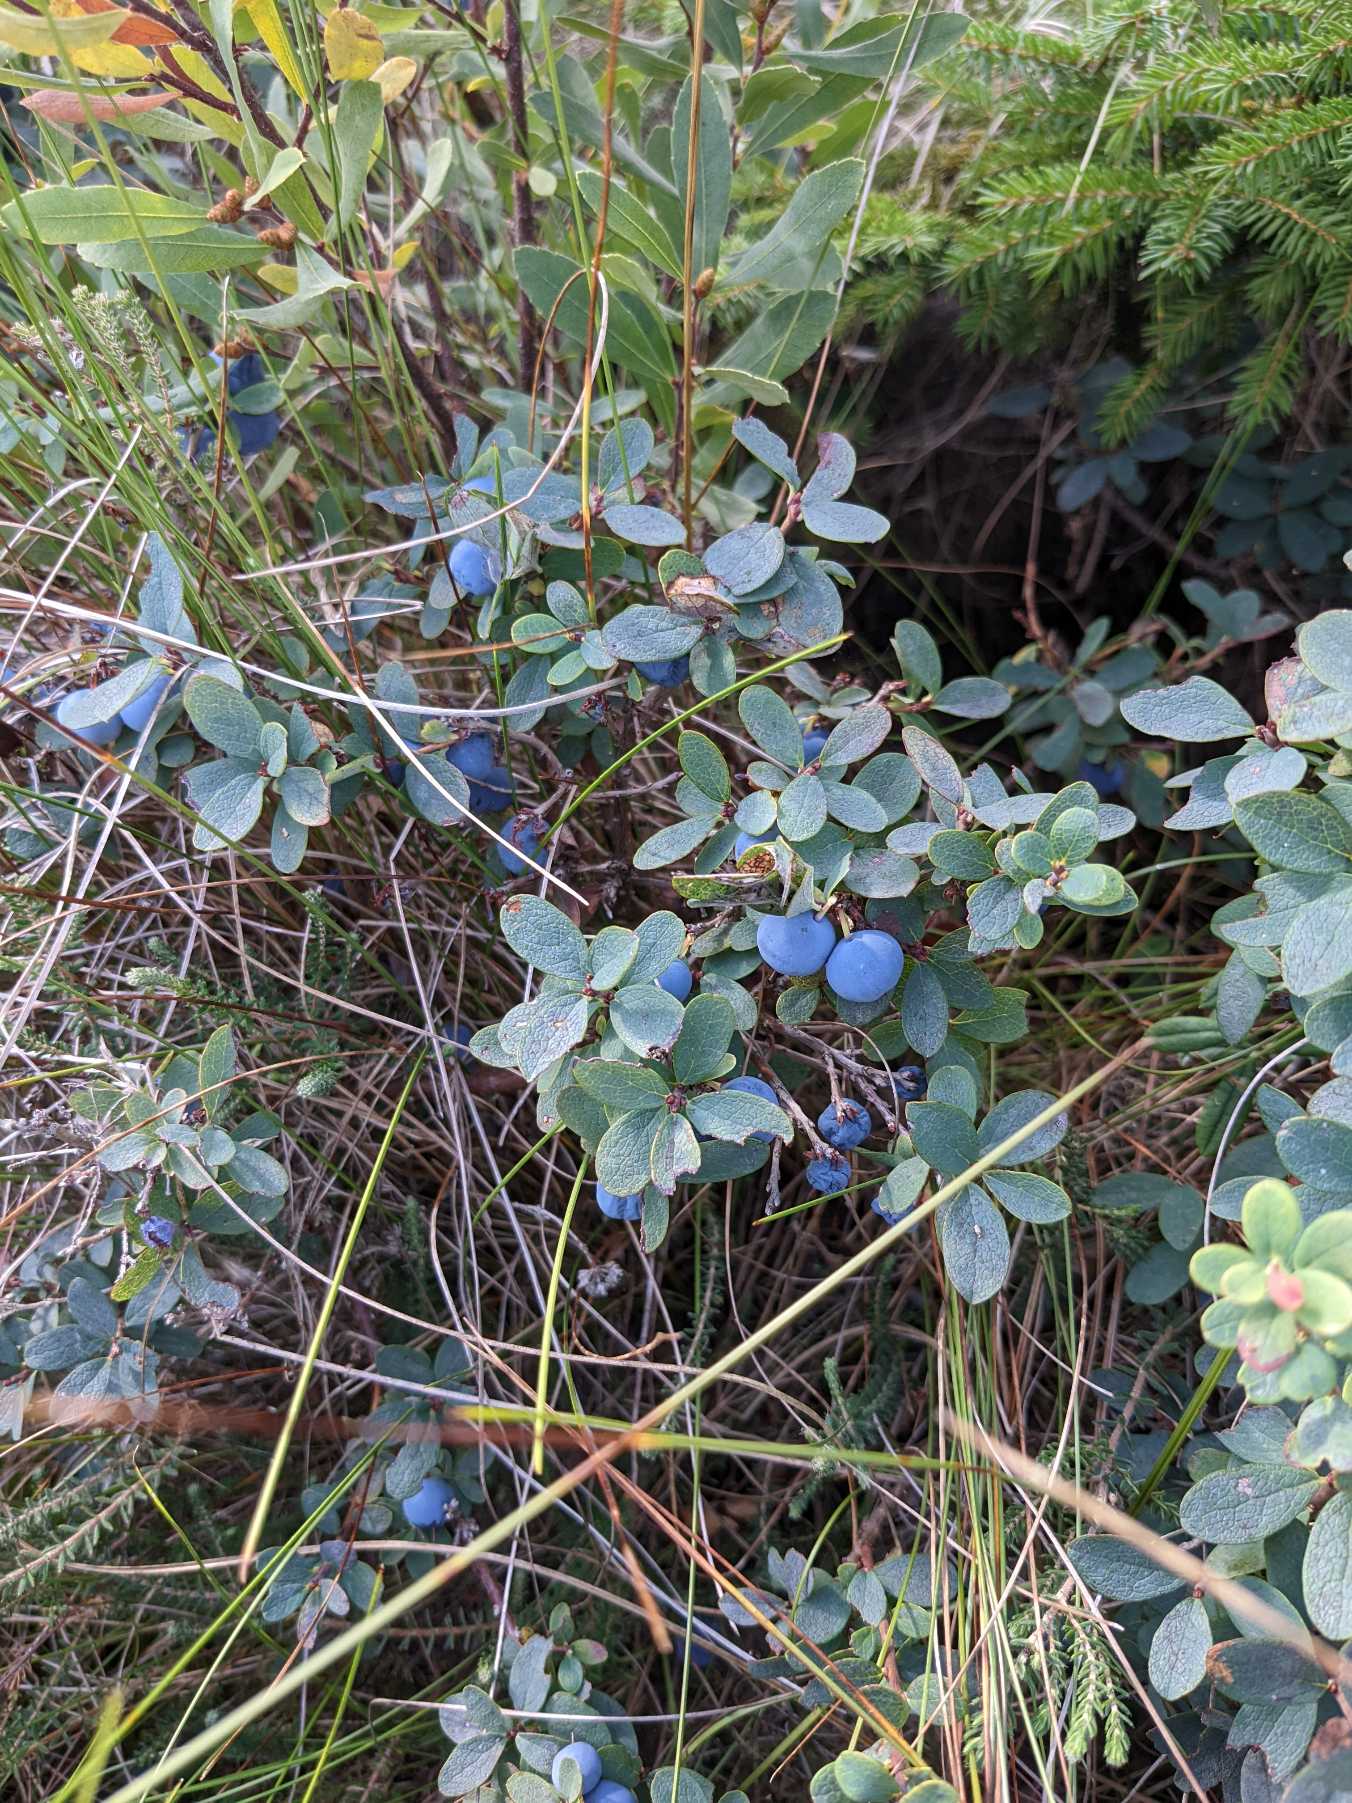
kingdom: Plantae
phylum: Tracheophyta
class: Magnoliopsida
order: Ericales
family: Ericaceae
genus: Vaccinium
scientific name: Vaccinium uliginosum
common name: Mose-bølle
